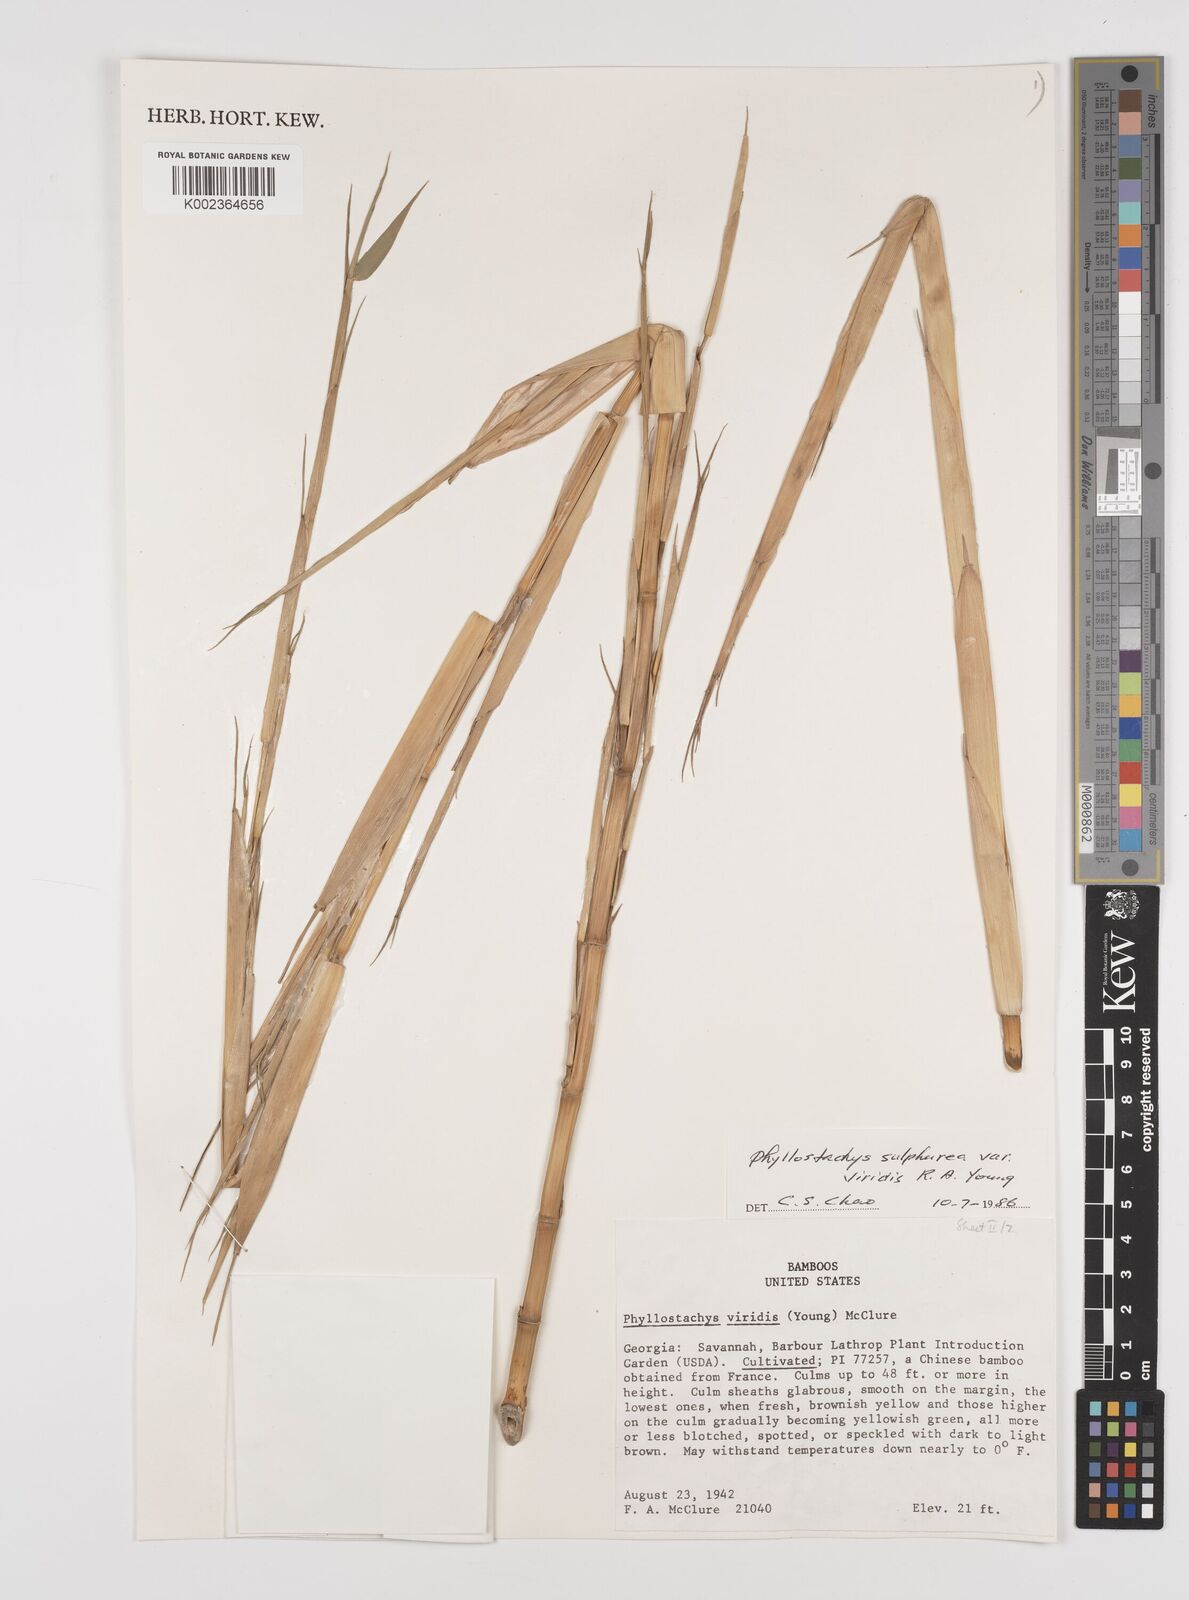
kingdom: Plantae
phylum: Tracheophyta
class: Liliopsida
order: Poales
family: Poaceae
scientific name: Poaceae
